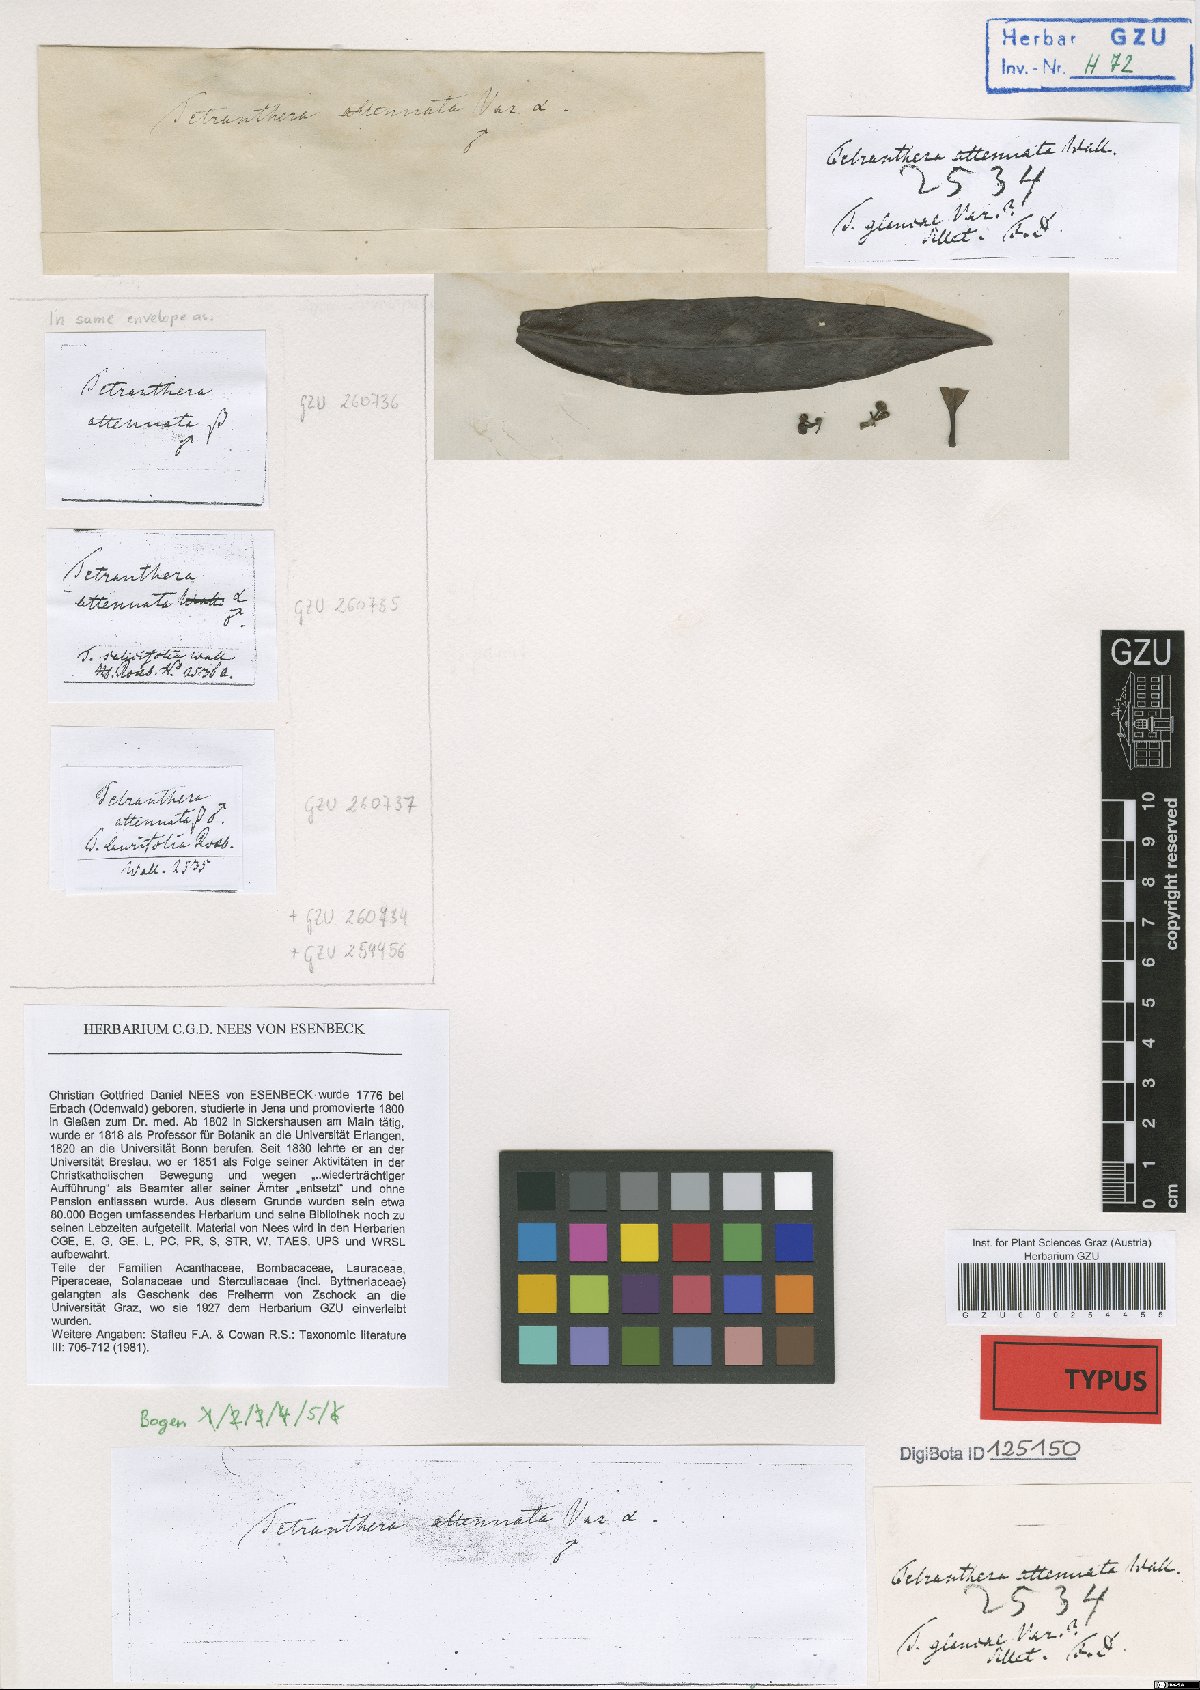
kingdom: Plantae
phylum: Tracheophyta
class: Magnoliopsida
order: Laurales
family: Lauraceae
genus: Litsea
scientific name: Litsea salicifolia
